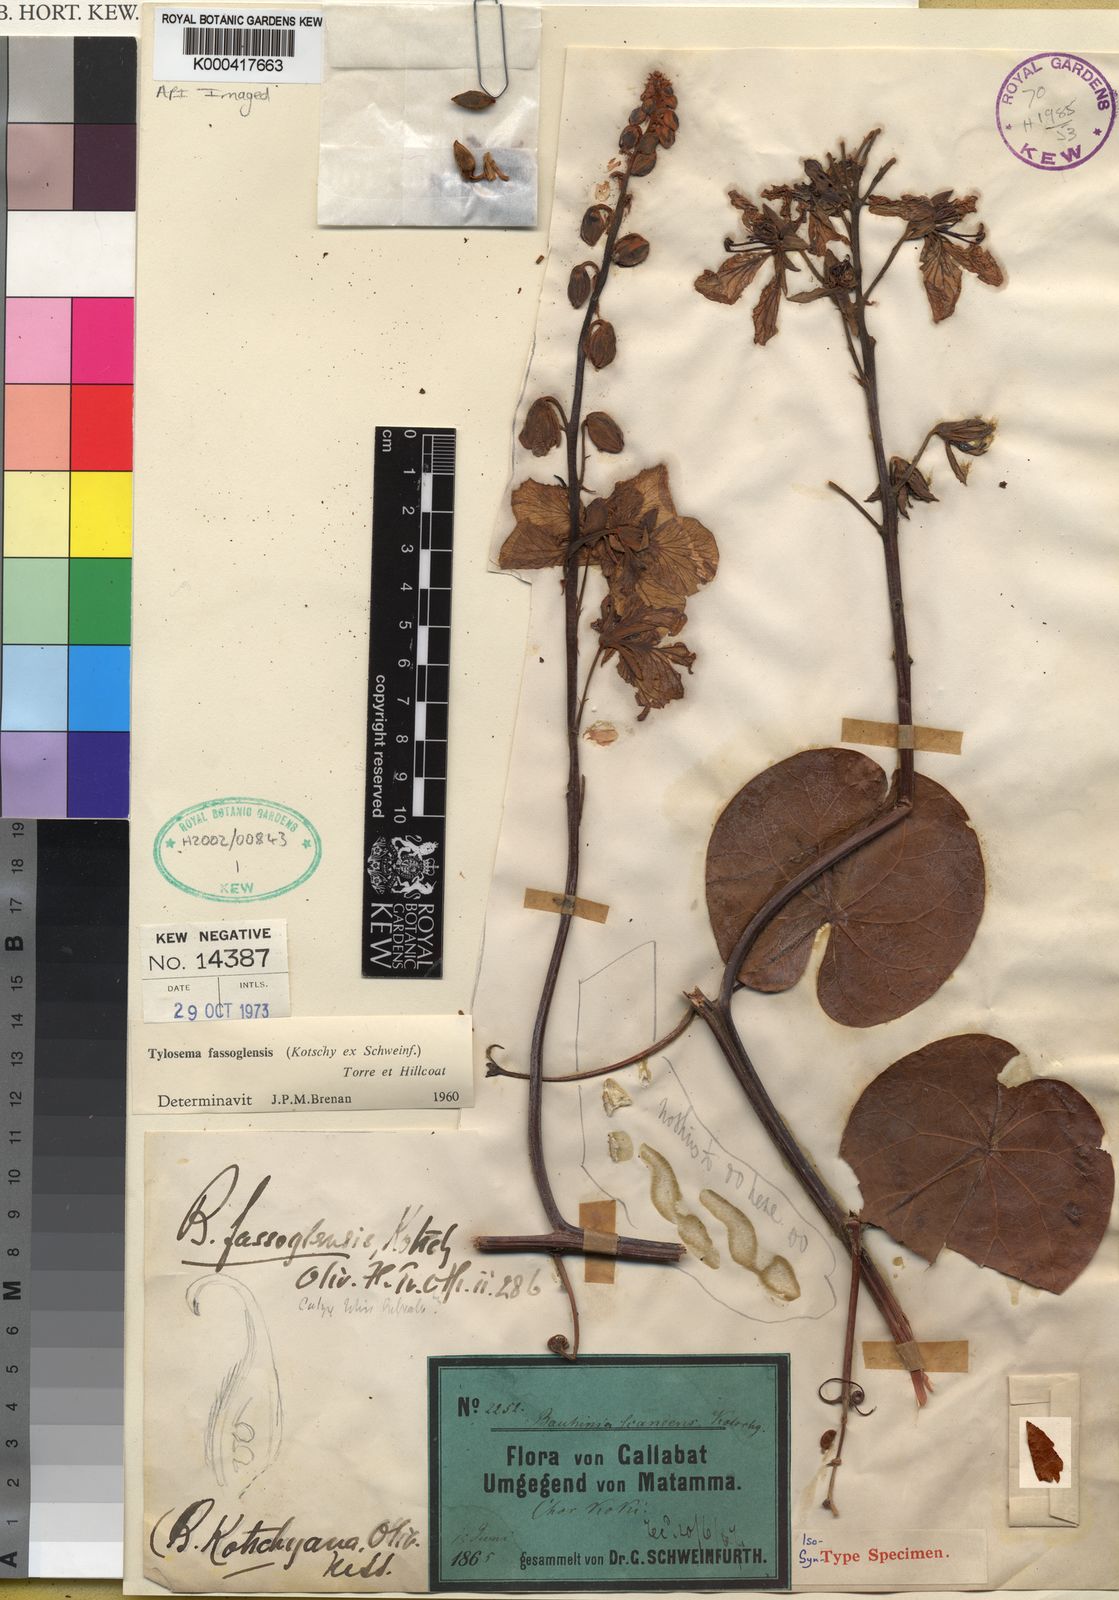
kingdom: Plantae
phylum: Tracheophyta
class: Magnoliopsida
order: Fabales
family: Fabaceae
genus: Tylosema
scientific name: Tylosema fassoglense
